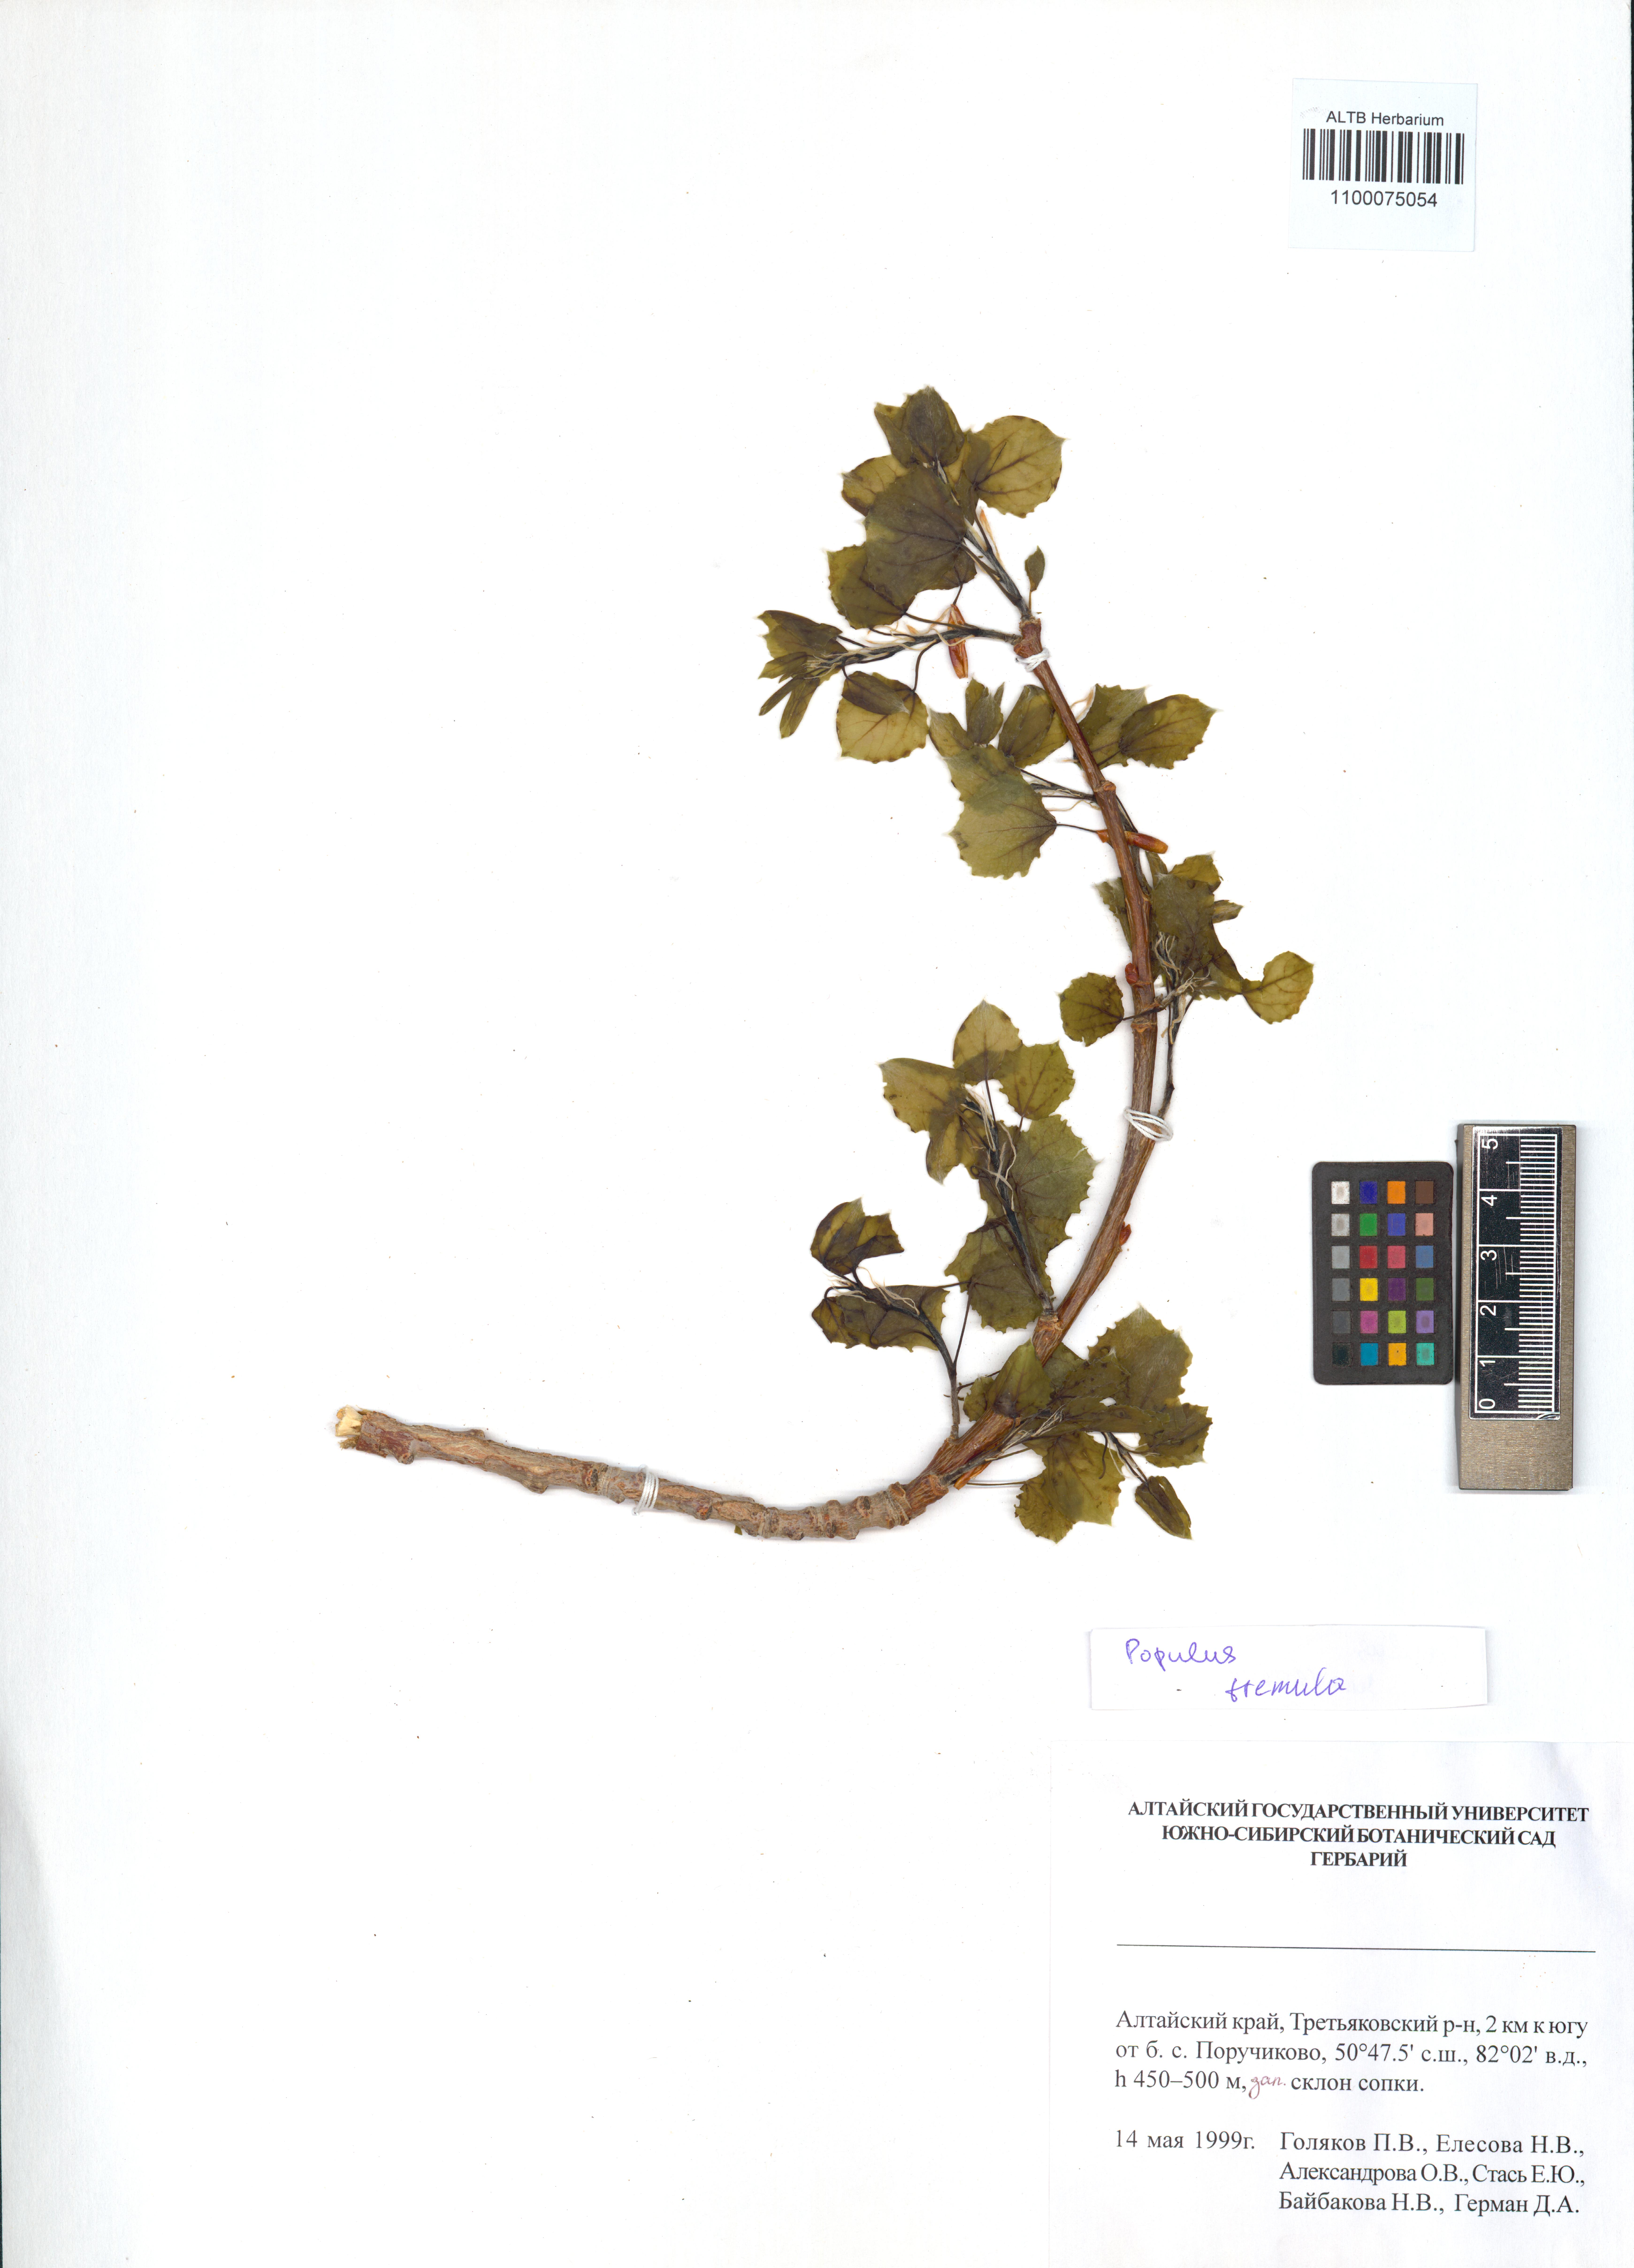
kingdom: Plantae
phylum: Tracheophyta
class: Magnoliopsida
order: Malpighiales
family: Salicaceae
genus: Populus
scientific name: Populus tremula
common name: European aspen
